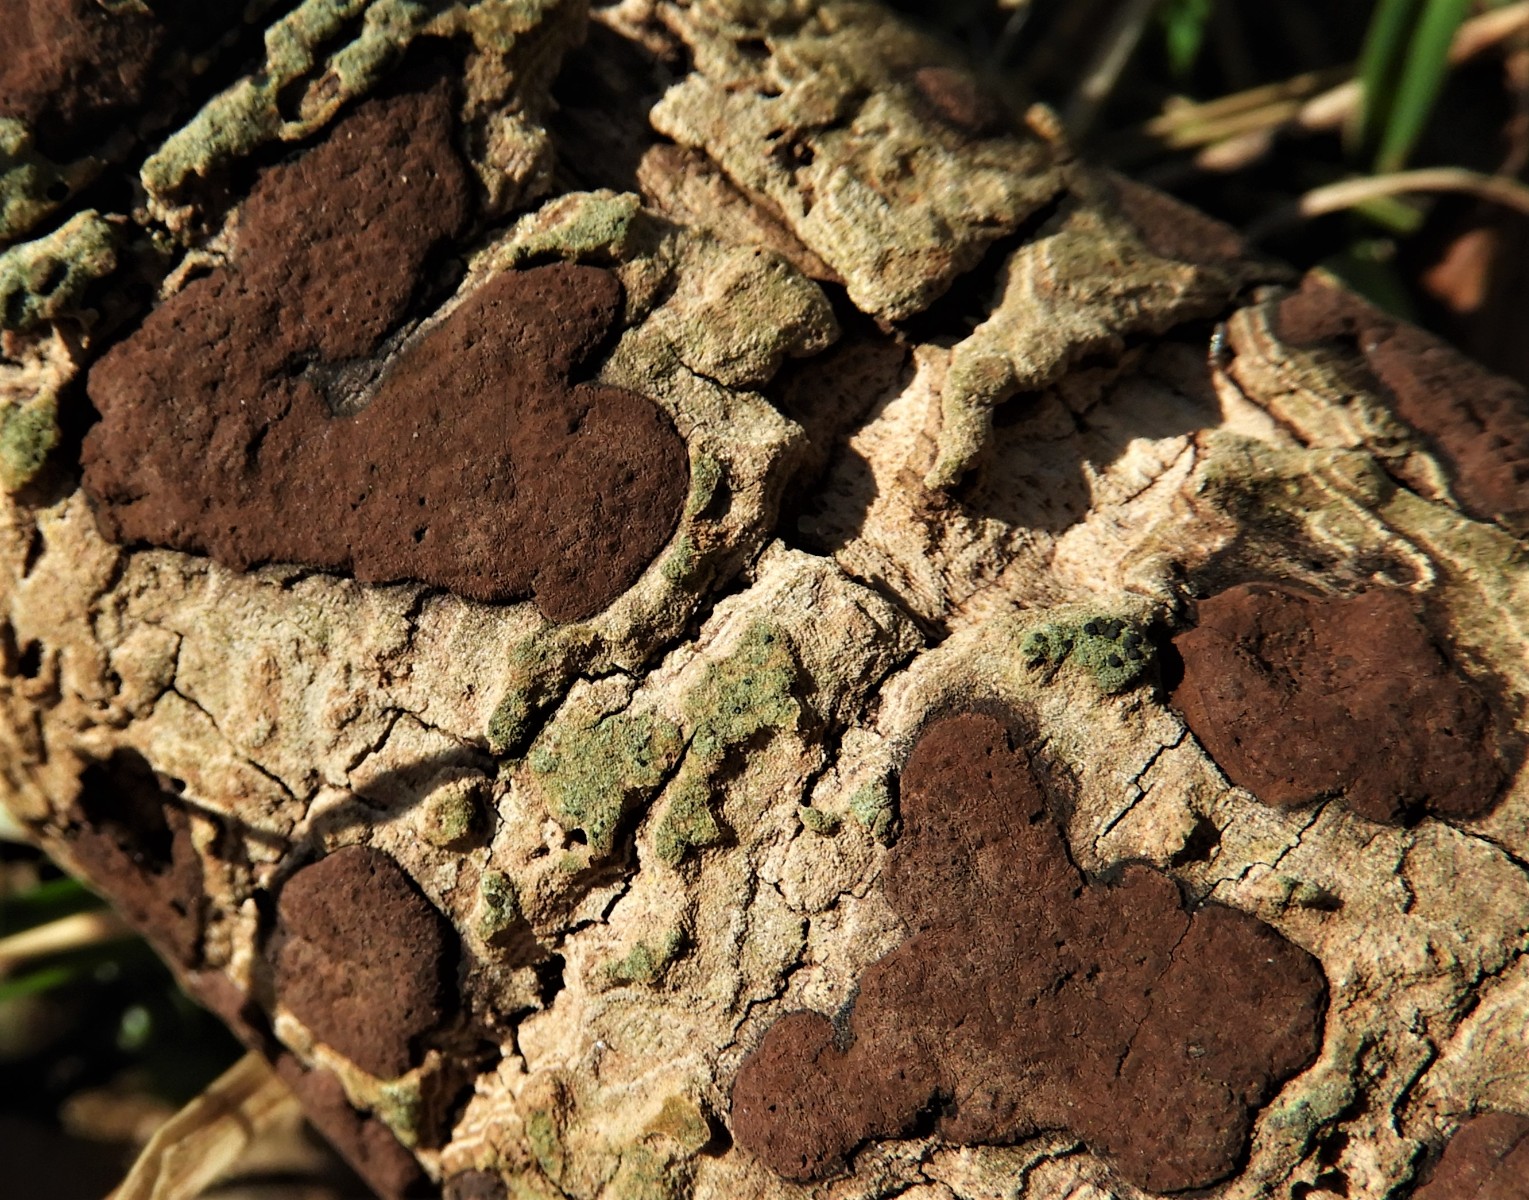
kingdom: Fungi
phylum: Ascomycota
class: Sordariomycetes
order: Xylariales
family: Hypoxylaceae
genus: Hypoxylon
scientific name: Hypoxylon petriniae
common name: nedsænket kulbær
